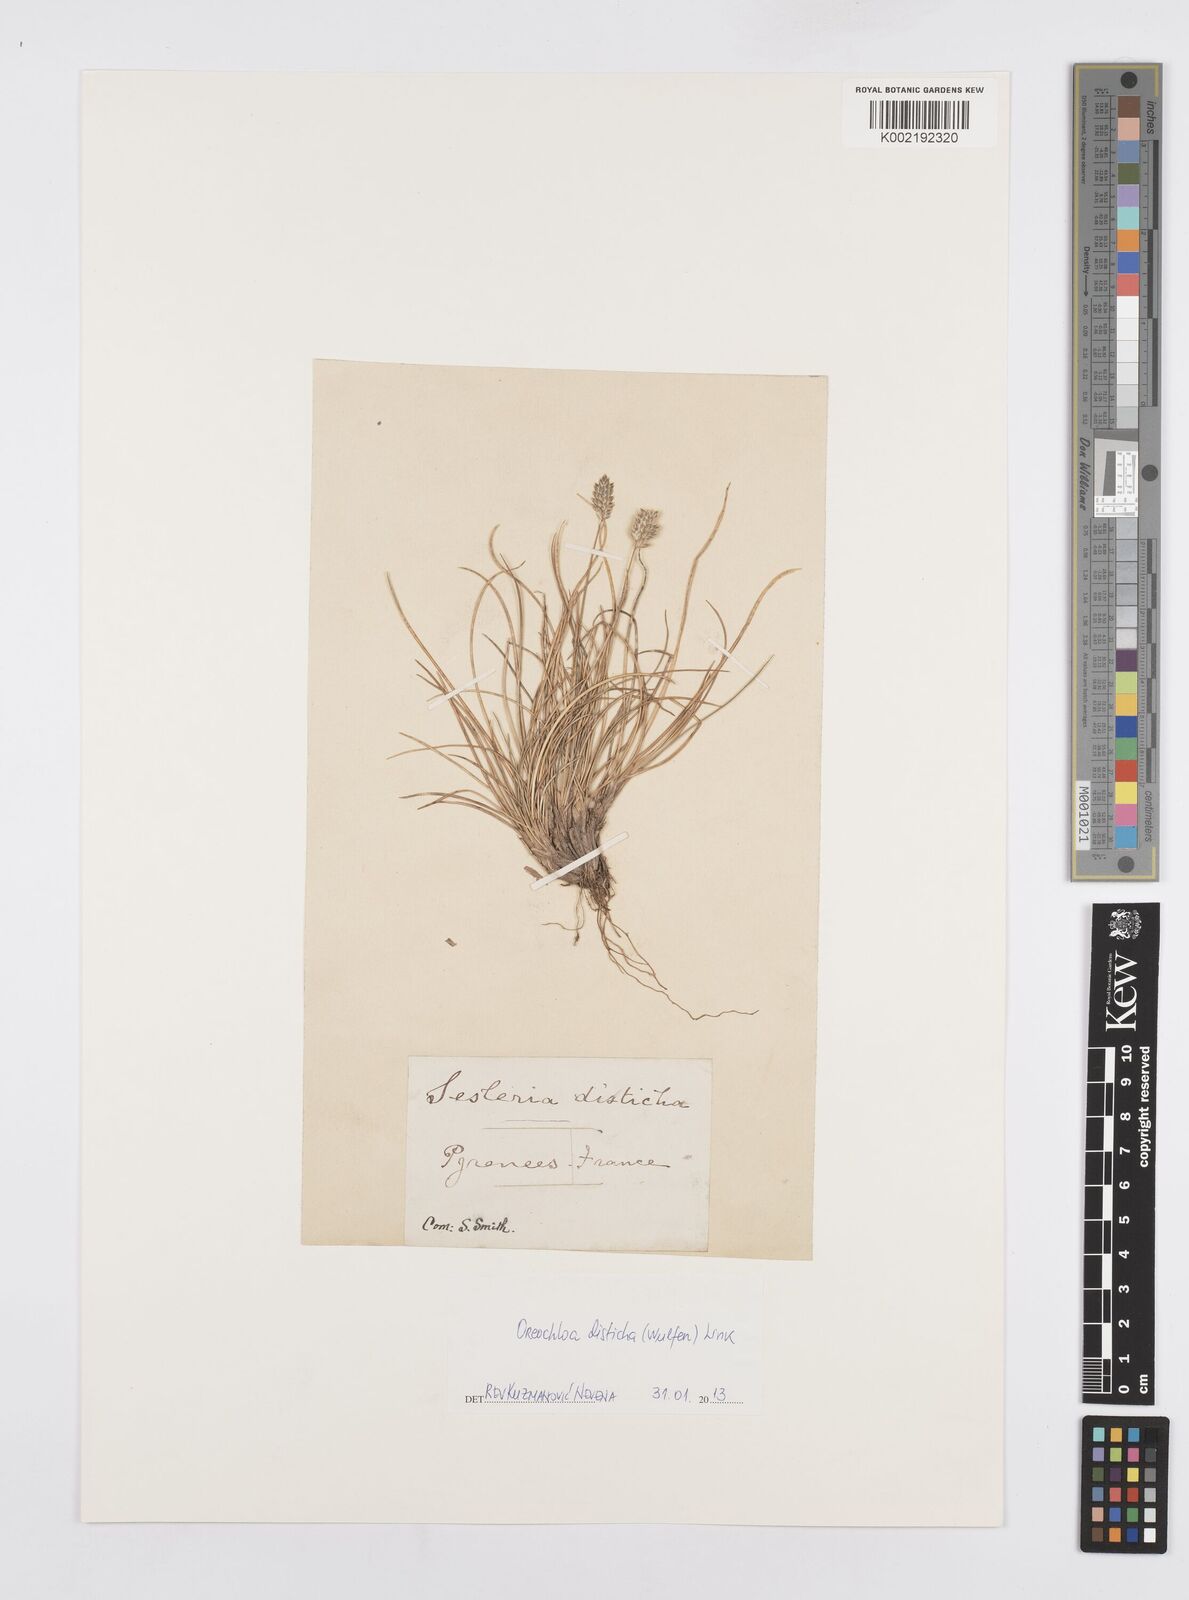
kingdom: Plantae
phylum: Tracheophyta
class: Liliopsida
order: Poales
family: Poaceae
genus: Oreochloa
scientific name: Oreochloa disticha
